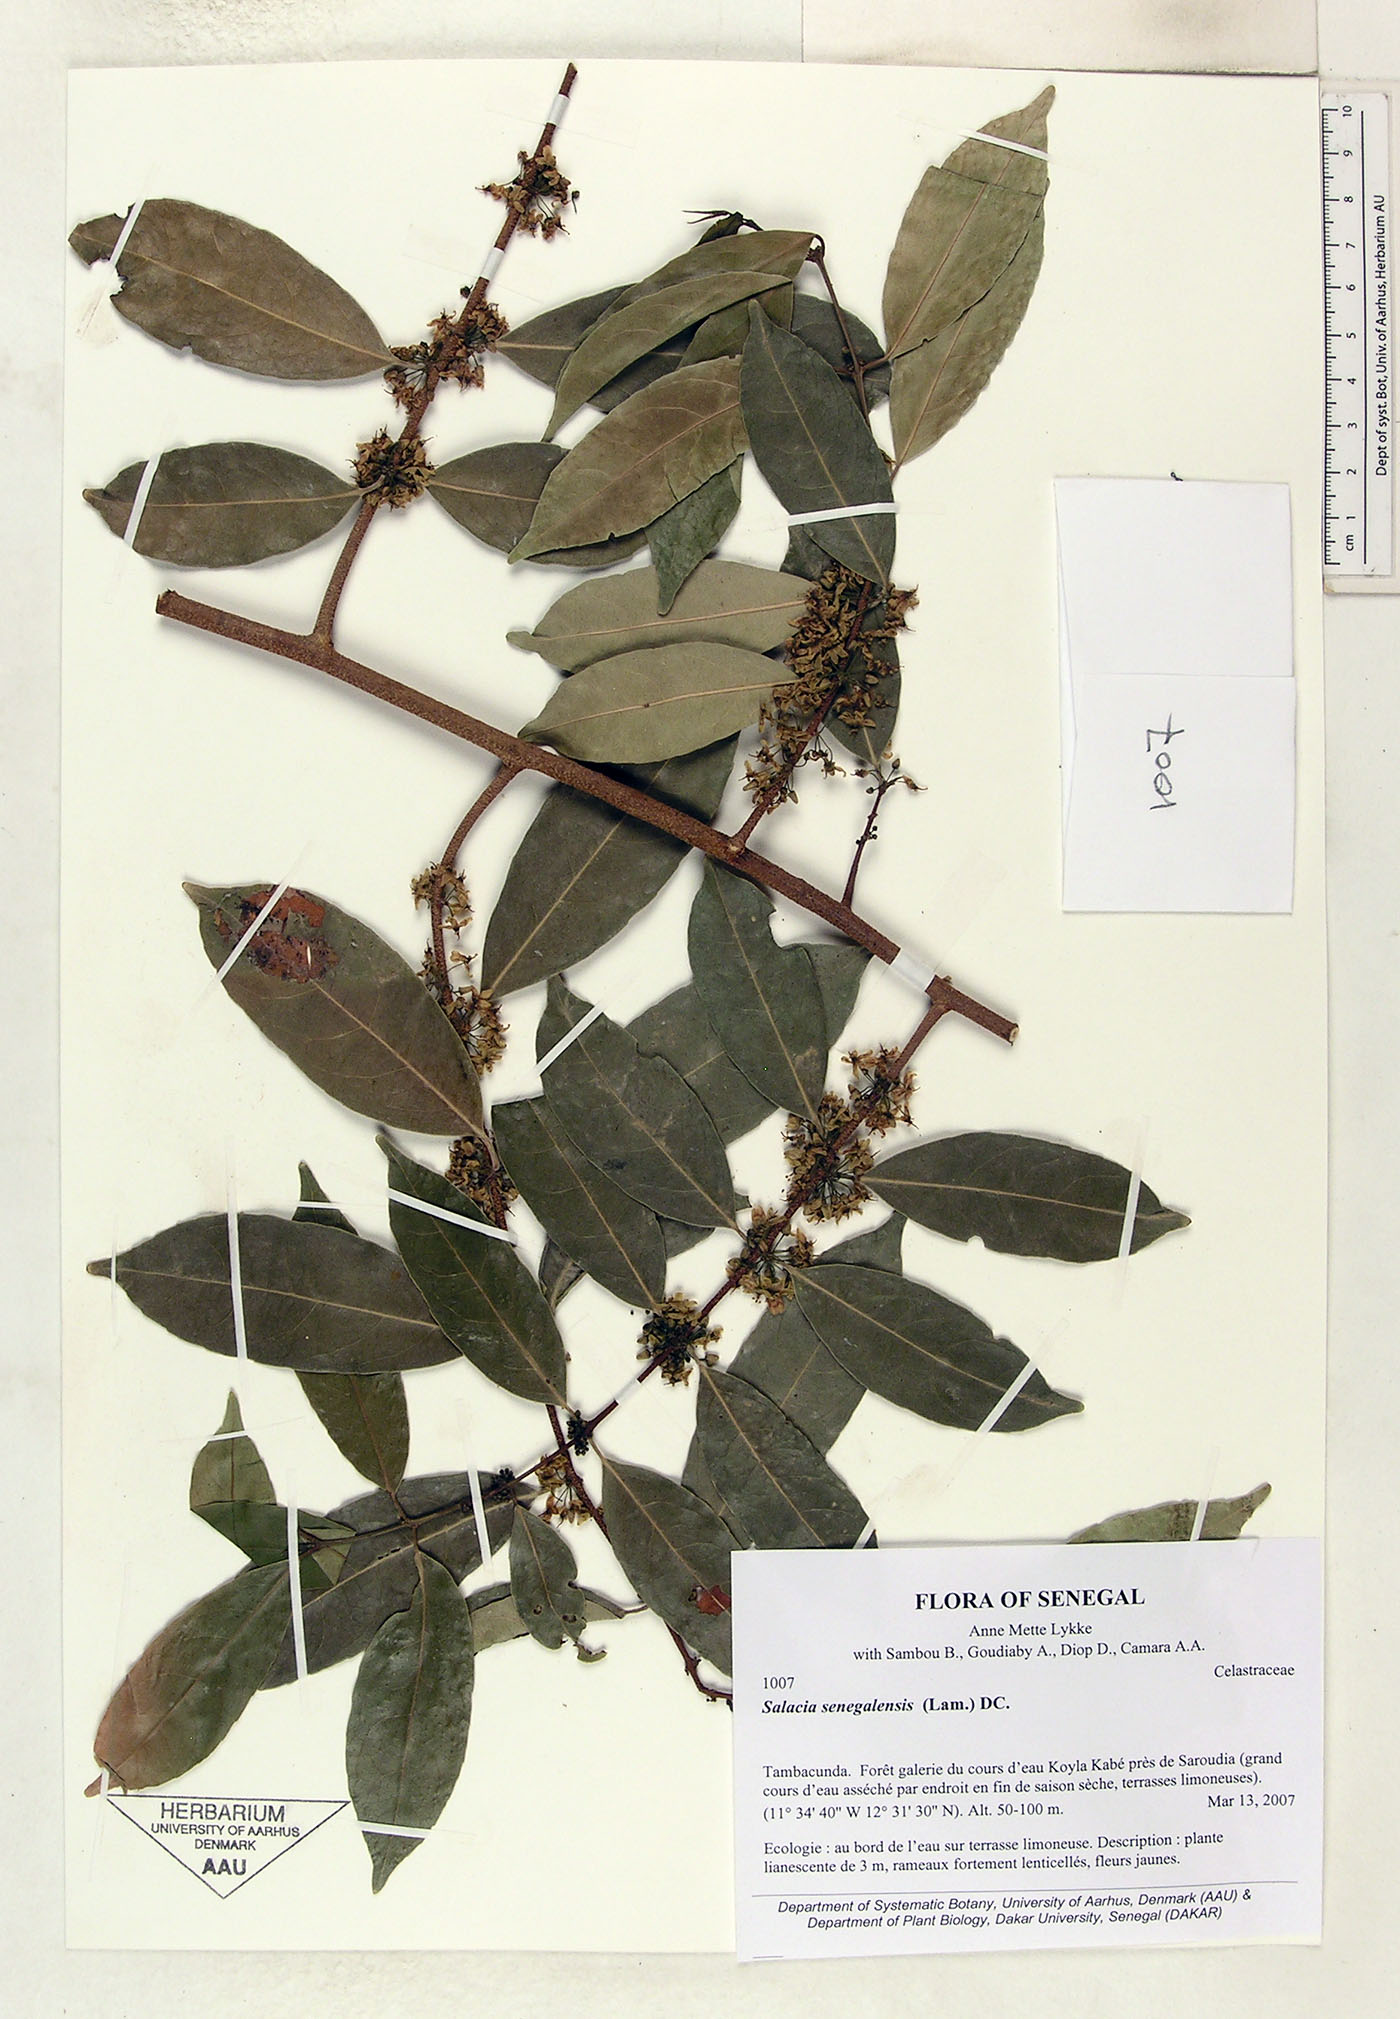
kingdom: Plantae
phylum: Tracheophyta
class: Magnoliopsida
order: Celastrales
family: Celastraceae
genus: Salacia
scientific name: Salacia senegalensis
